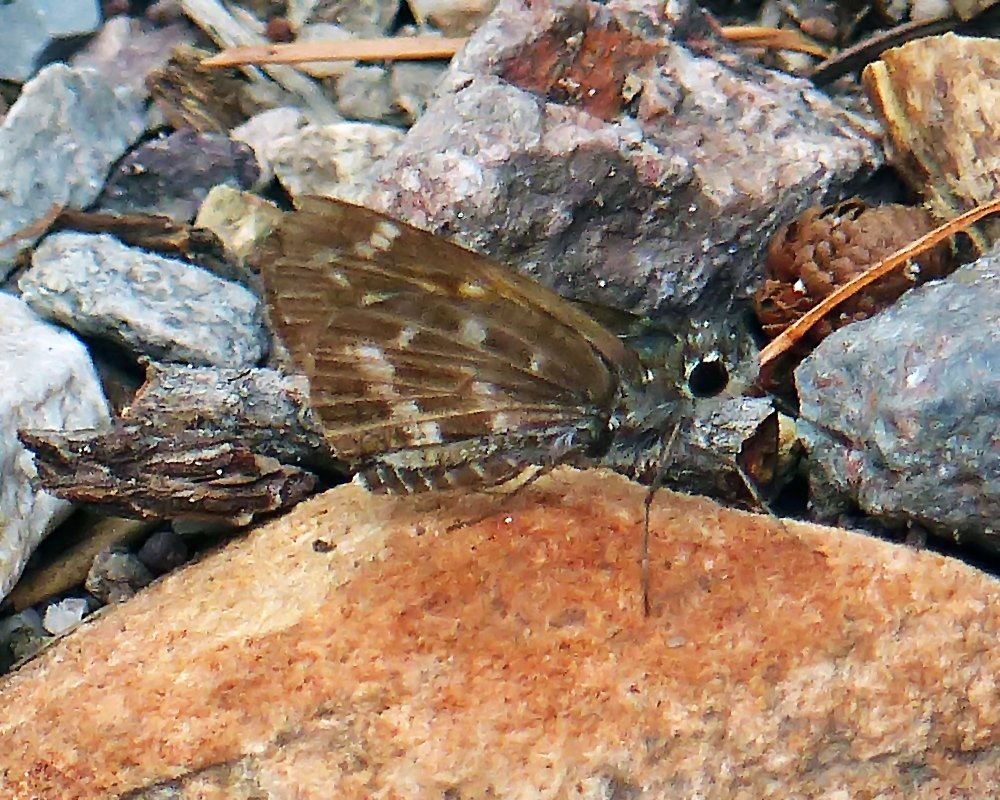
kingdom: Animalia
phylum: Arthropoda
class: Insecta
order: Lepidoptera
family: Hesperiidae
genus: Mastor
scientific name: Mastor cassus
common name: Cassus Roadside-Skipper
